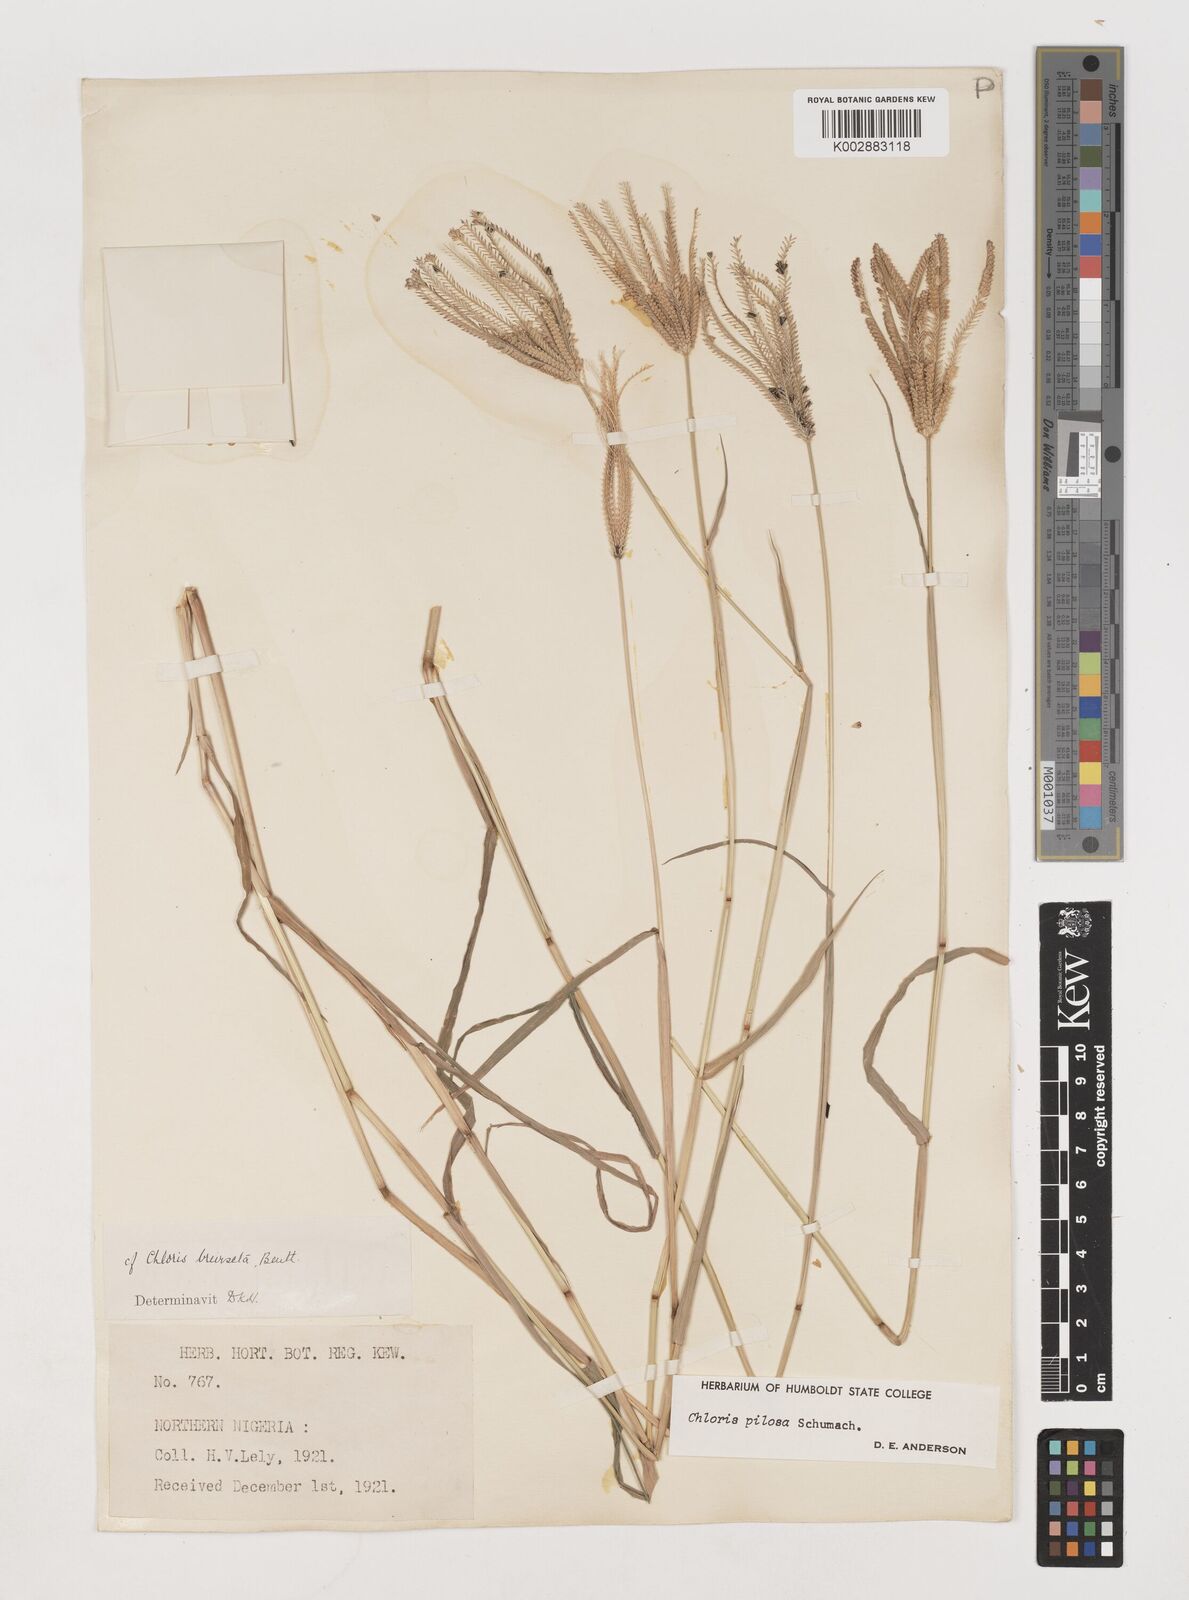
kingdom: Plantae
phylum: Tracheophyta
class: Liliopsida
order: Poales
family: Poaceae
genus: Chloris
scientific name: Chloris pilosa
